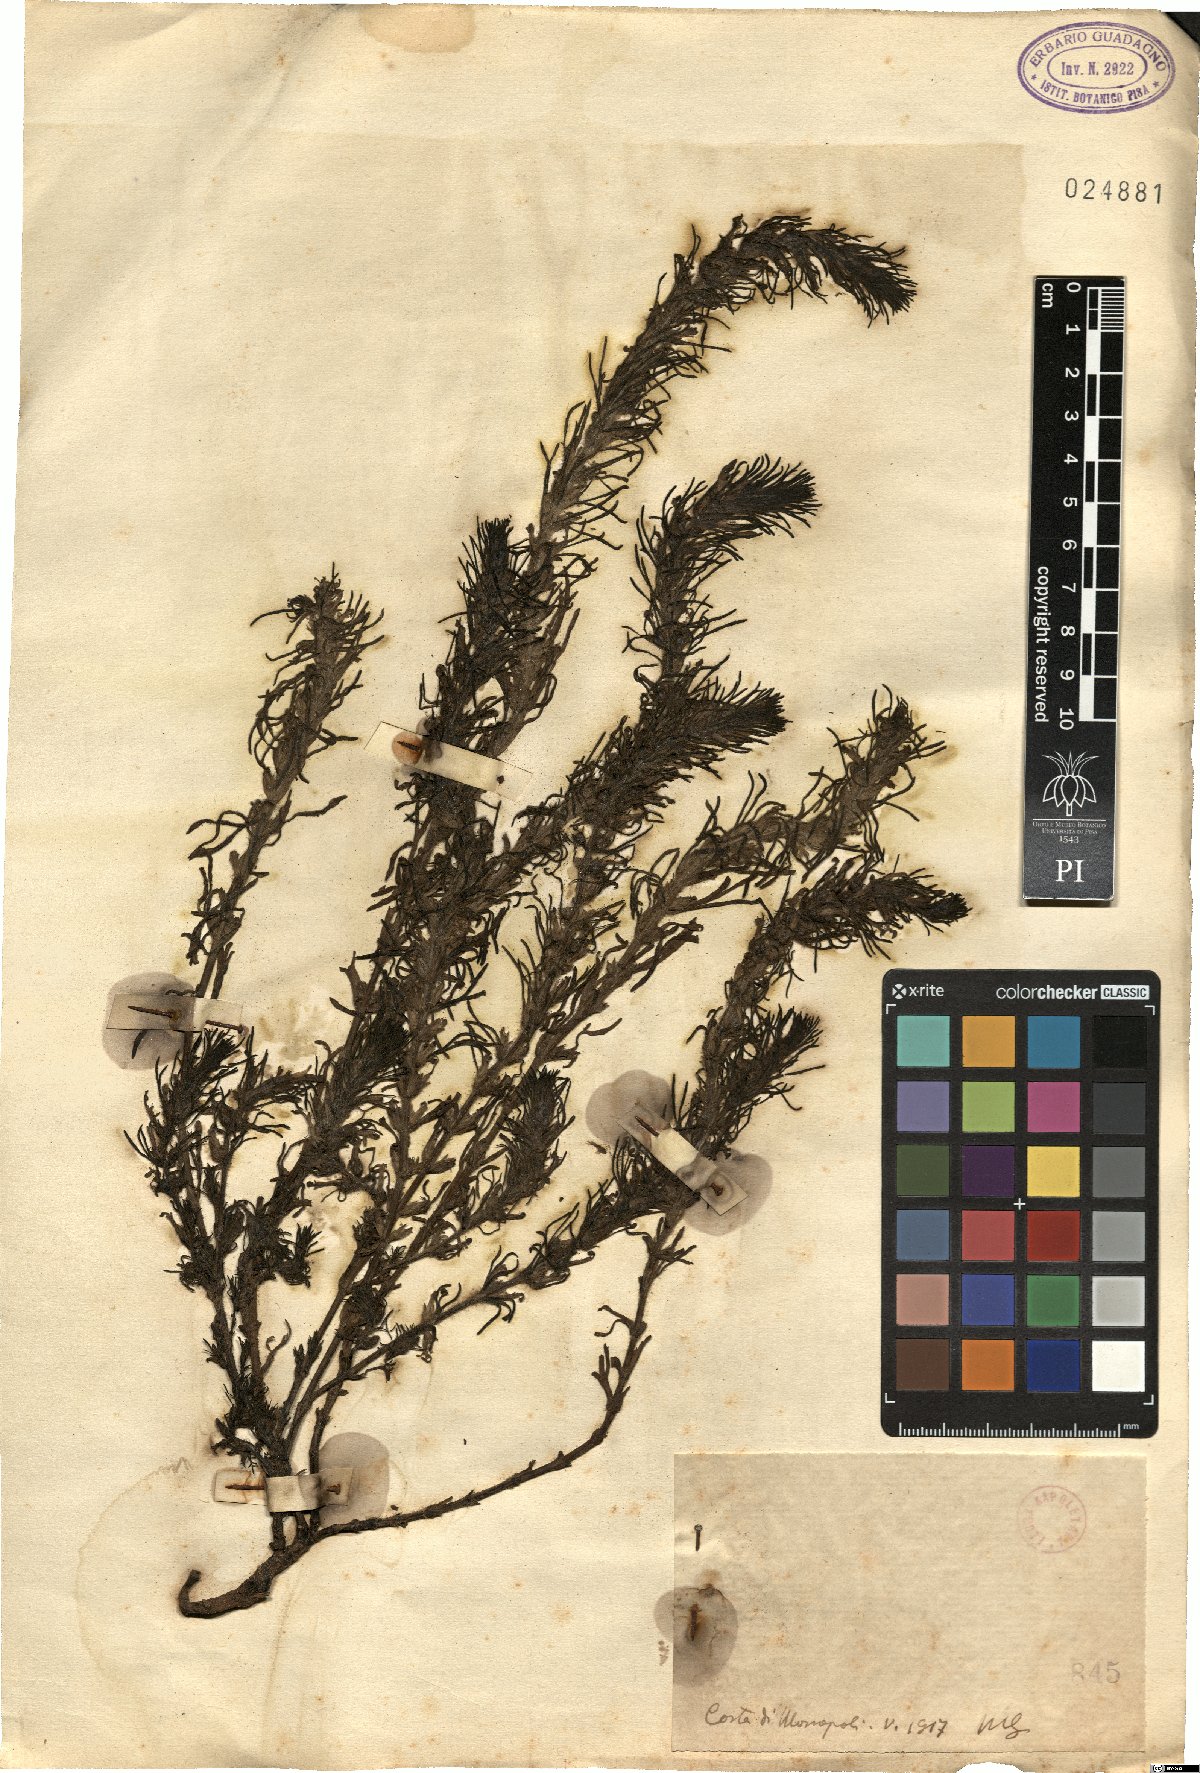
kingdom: Plantae
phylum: Tracheophyta
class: Magnoliopsida
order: Lamiales
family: Lamiaceae
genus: Ajuga
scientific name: Ajuga
